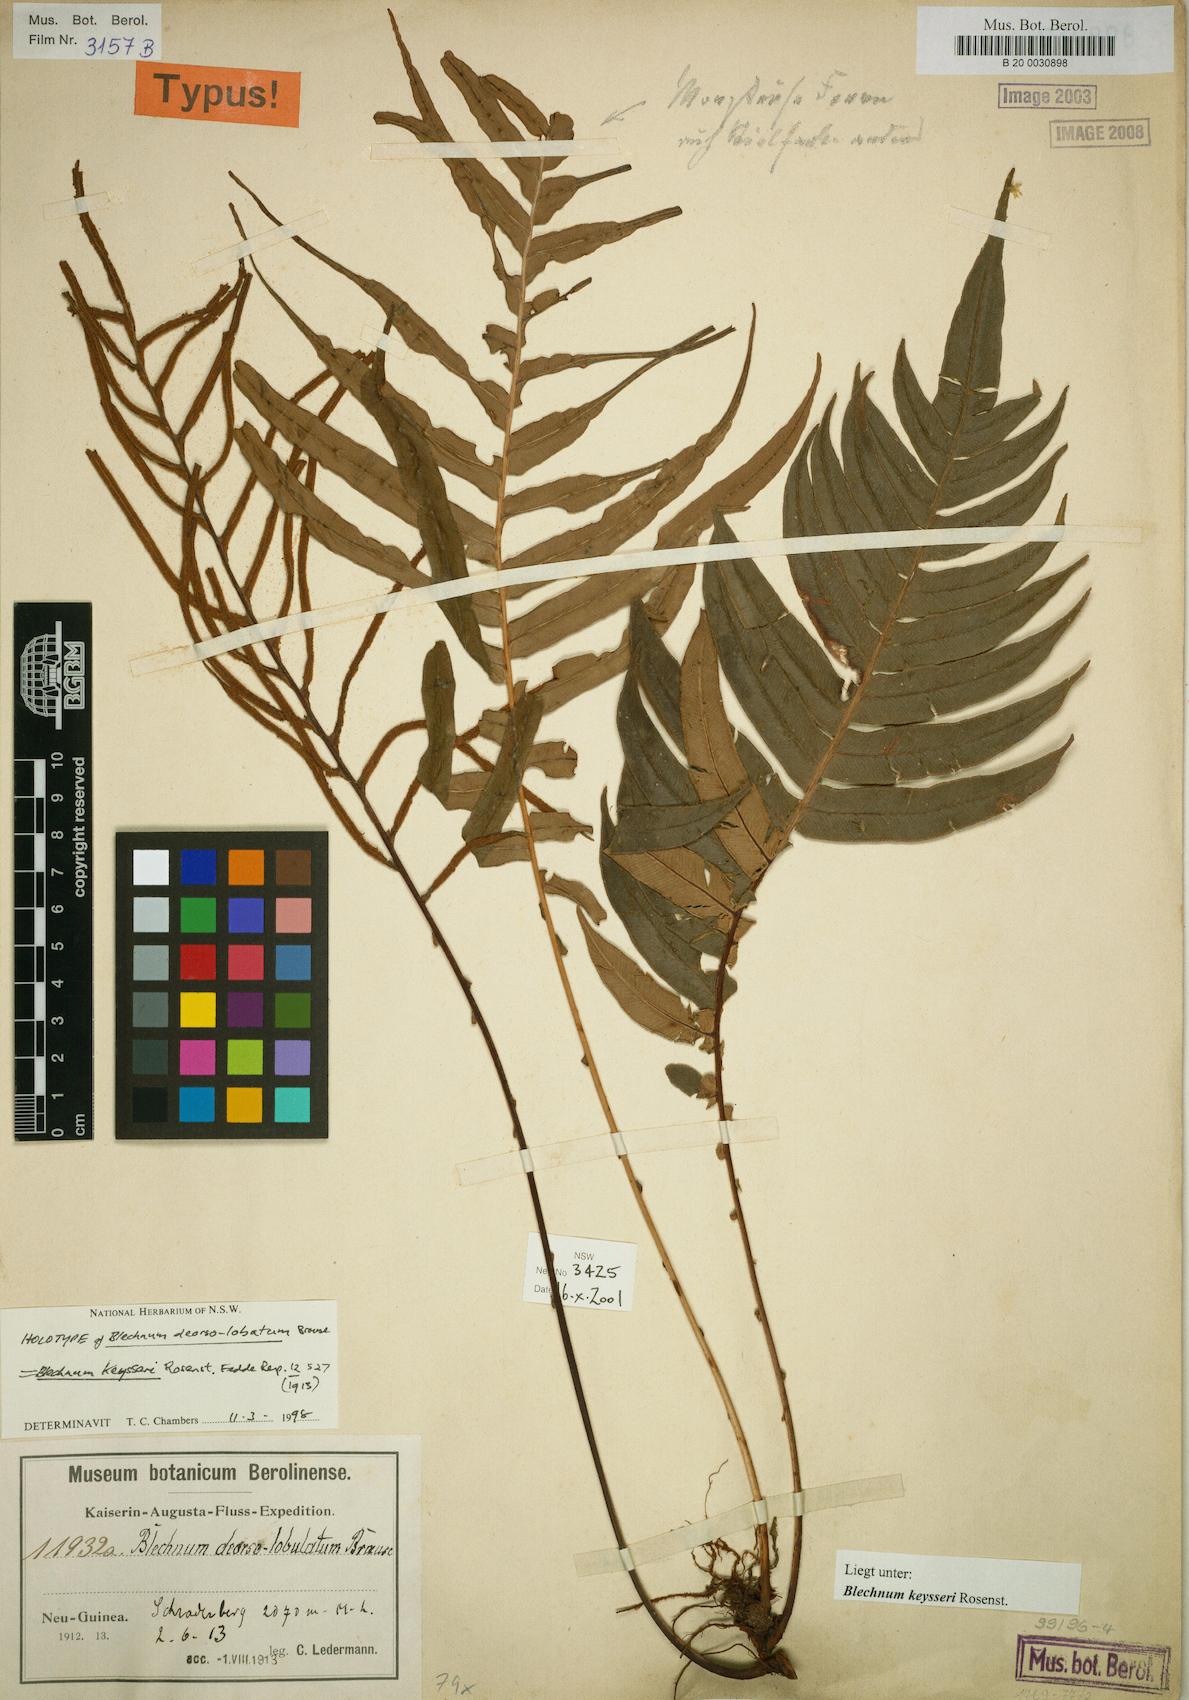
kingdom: Plantae
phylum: Tracheophyta
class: Polypodiopsida
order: Polypodiales
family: Blechnaceae
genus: Austroblechnum
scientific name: Austroblechnum keysseri
